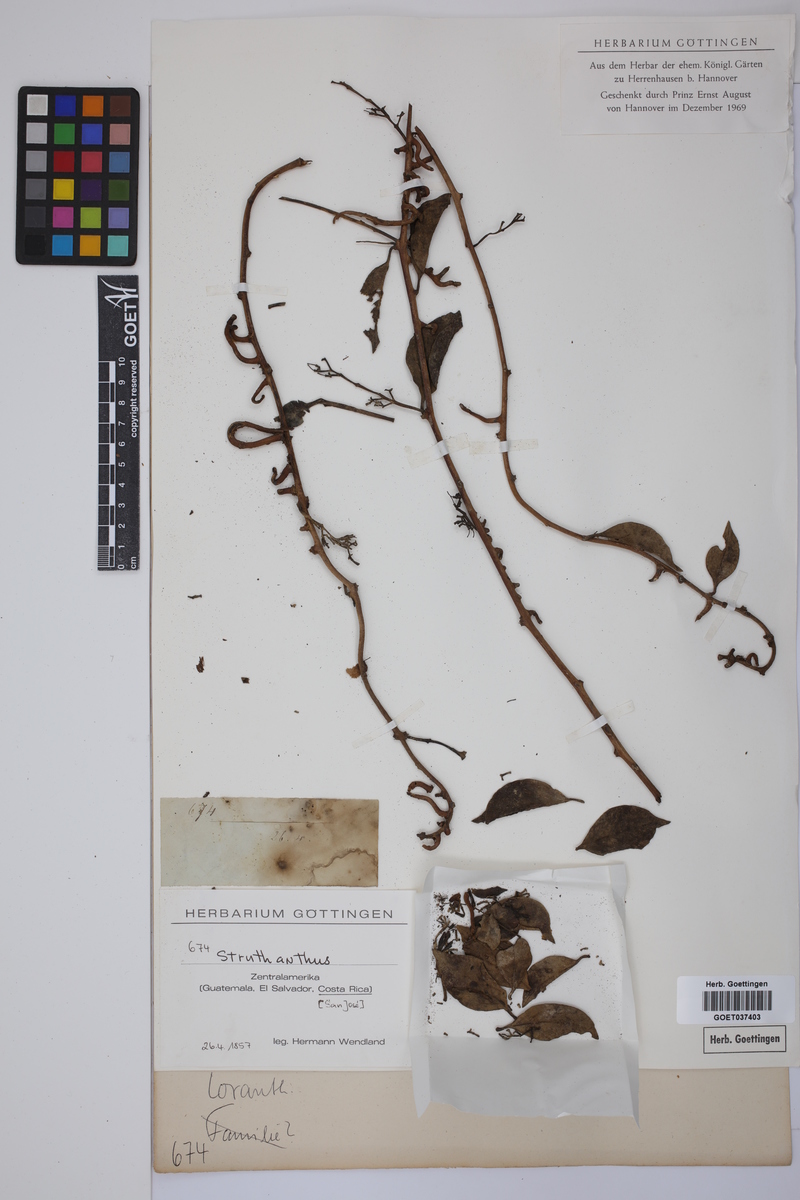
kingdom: Plantae
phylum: Tracheophyta
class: Magnoliopsida
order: Santalales
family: Loranthaceae
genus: Struthanthus
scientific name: Struthanthus
